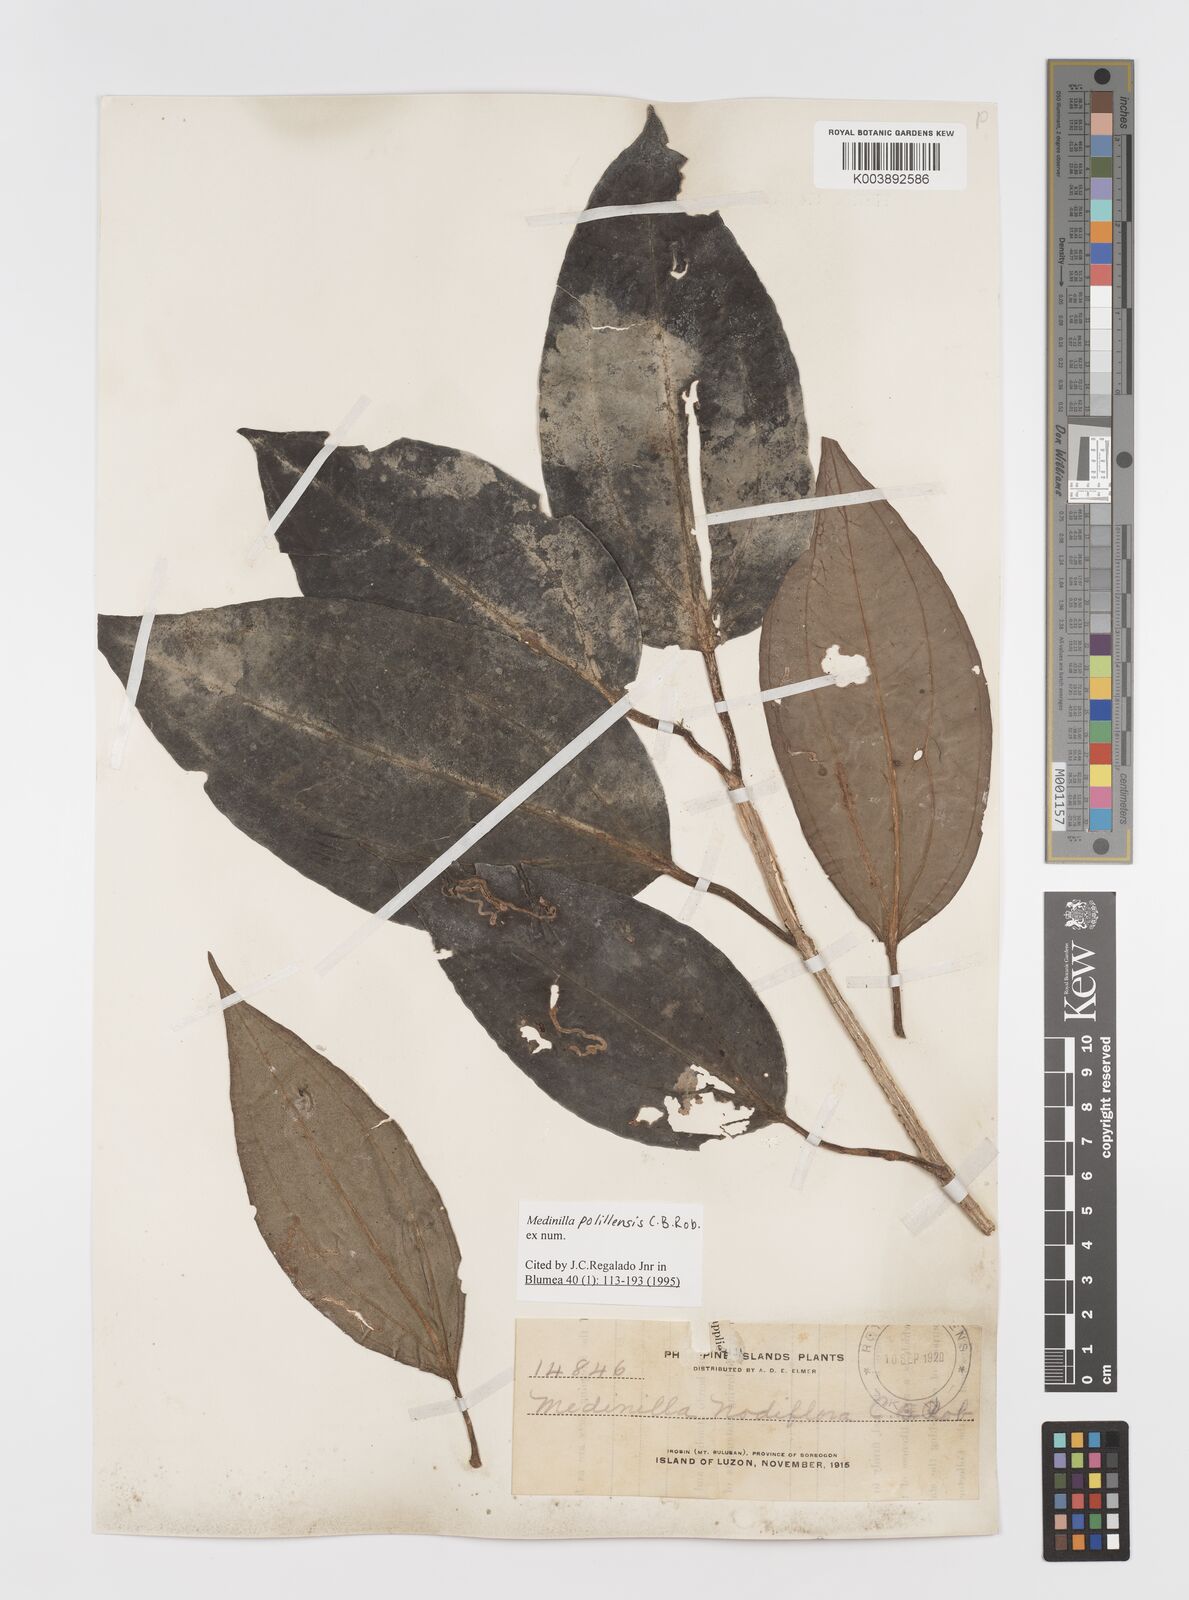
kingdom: Plantae
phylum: Tracheophyta
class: Magnoliopsida
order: Myrtales
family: Melastomataceae
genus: Medinilla
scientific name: Medinilla polillensis
